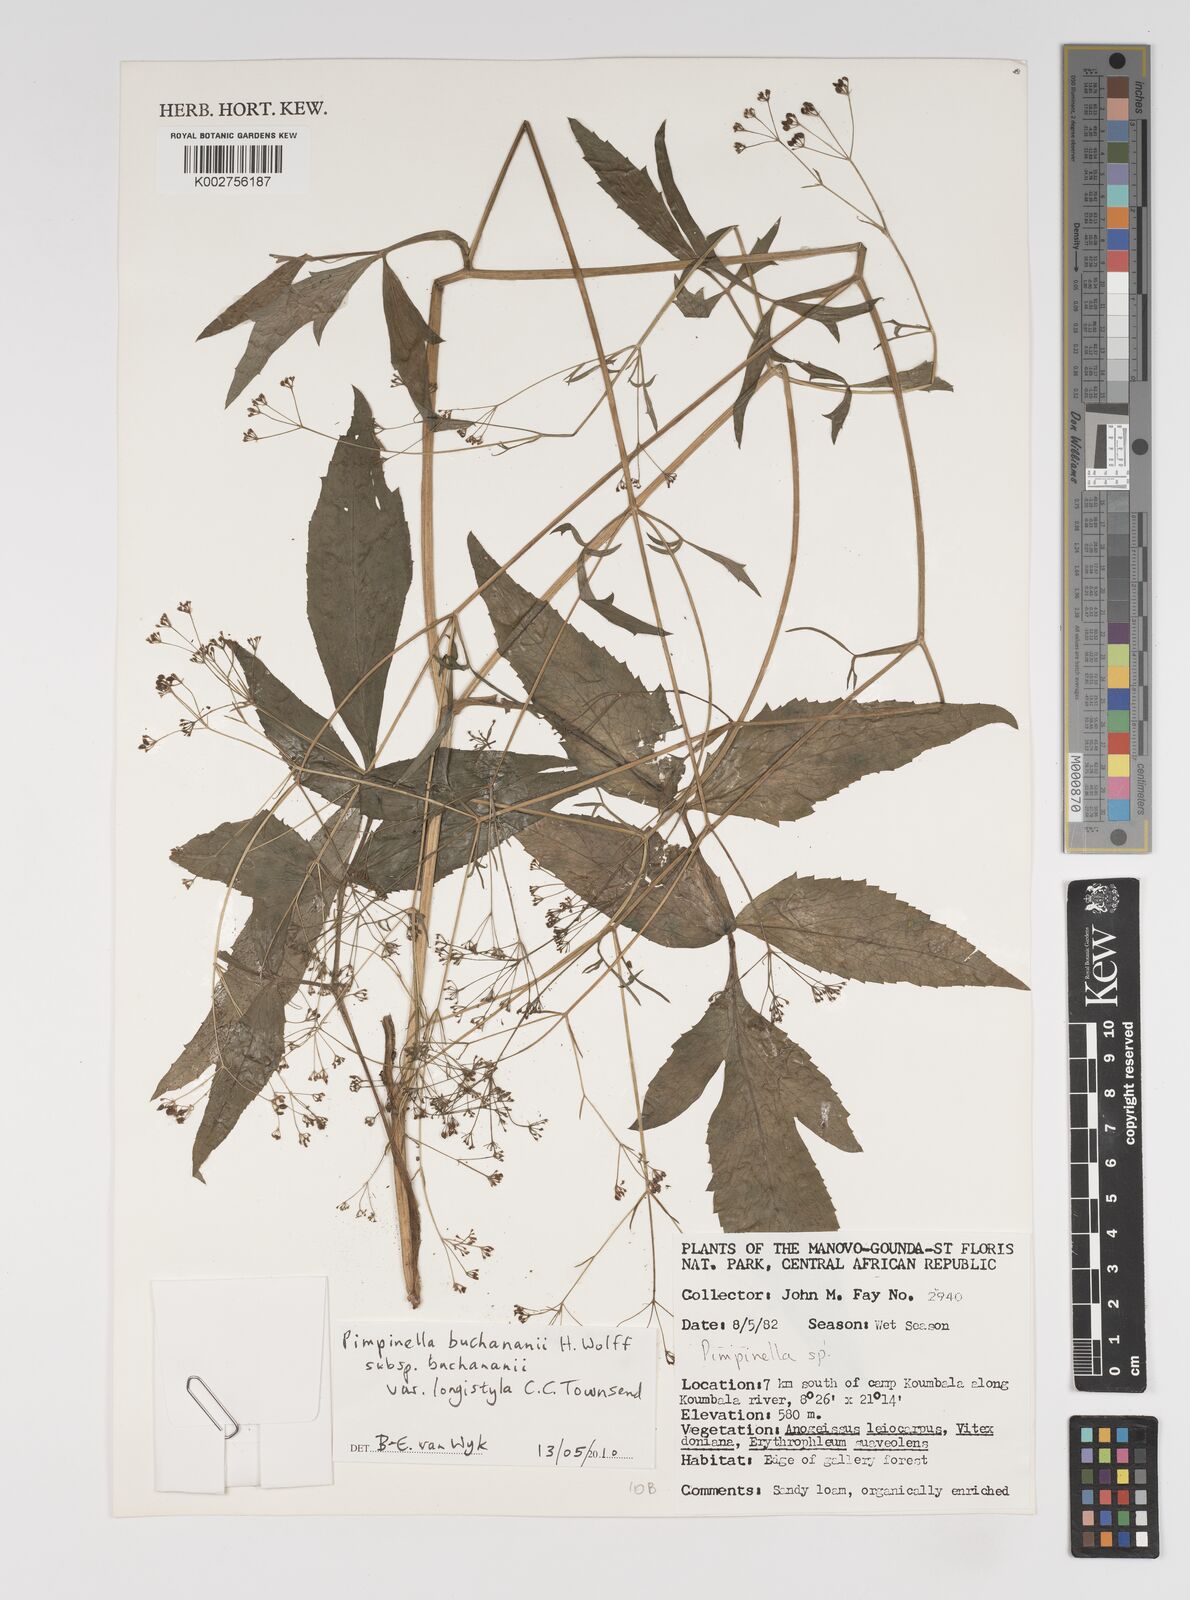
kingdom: Plantae
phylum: Tracheophyta
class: Magnoliopsida
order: Apiales
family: Apiaceae
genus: Pimpinella
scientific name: Pimpinella buchananii
